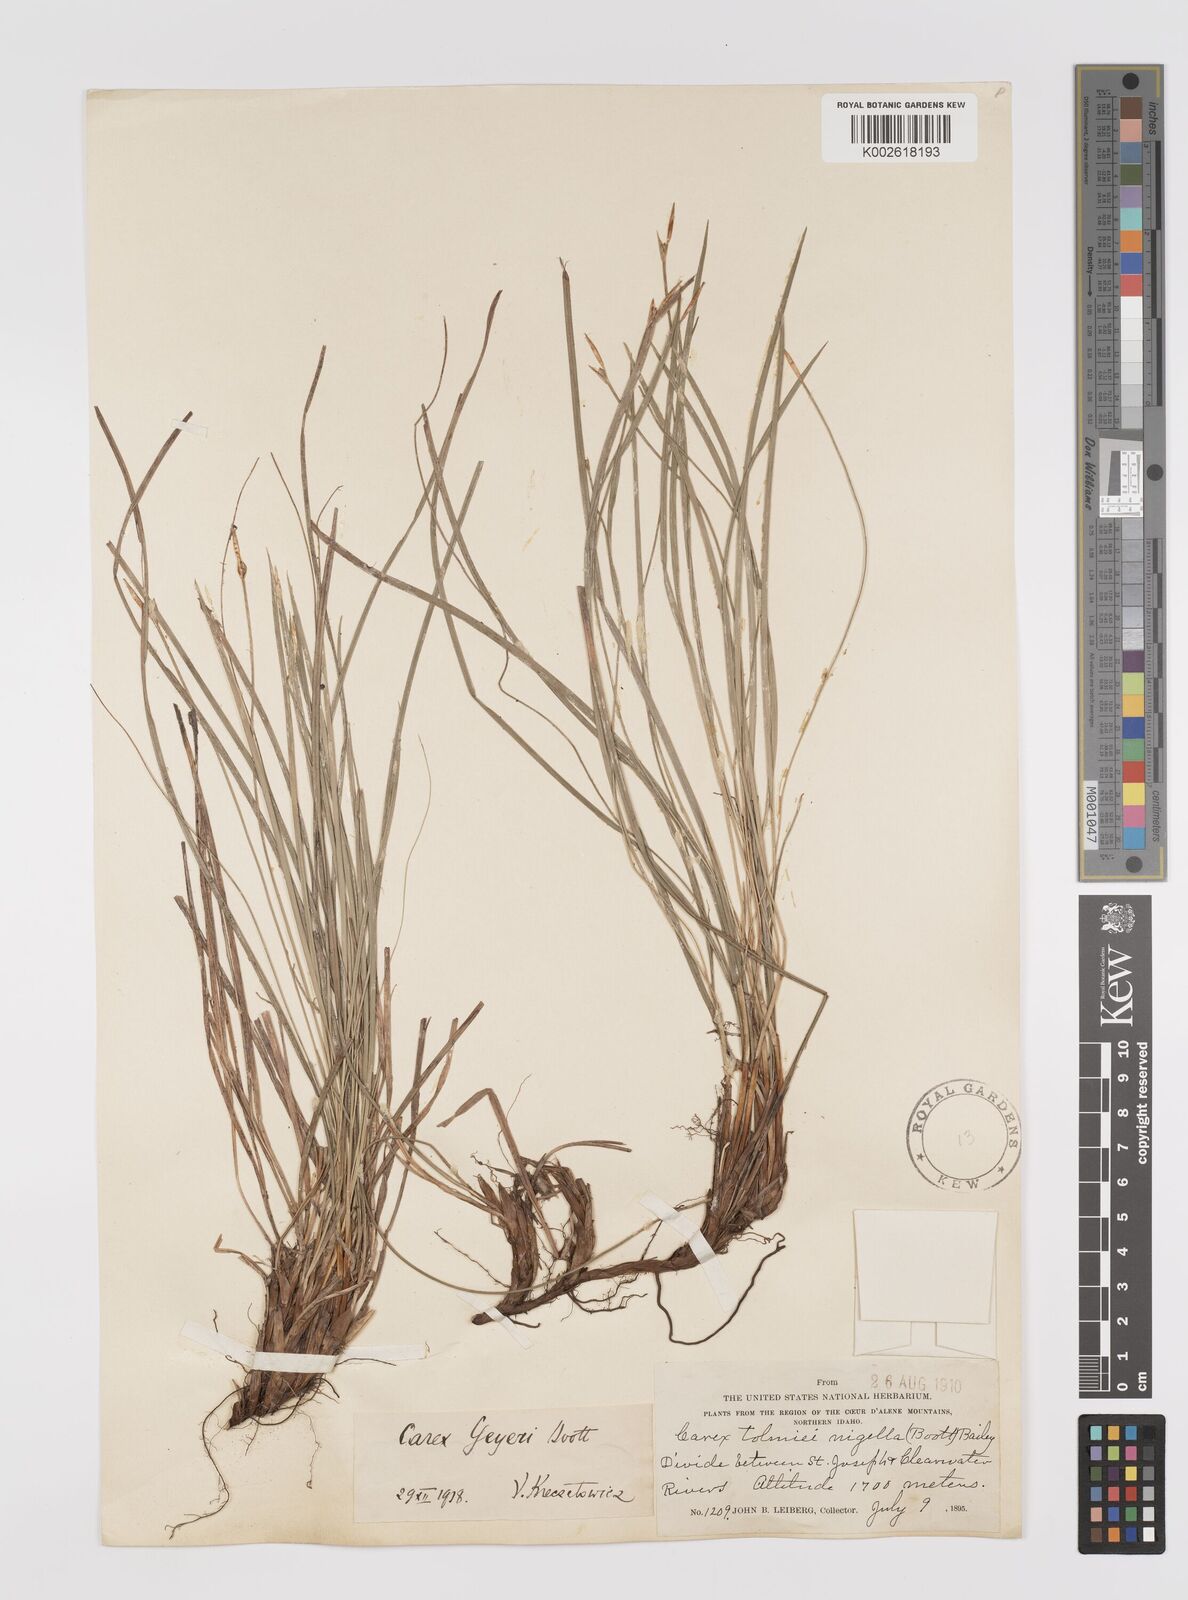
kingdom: Plantae
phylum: Tracheophyta
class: Liliopsida
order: Poales
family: Cyperaceae
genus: Carex
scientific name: Carex geyeri
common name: Elk sedge
